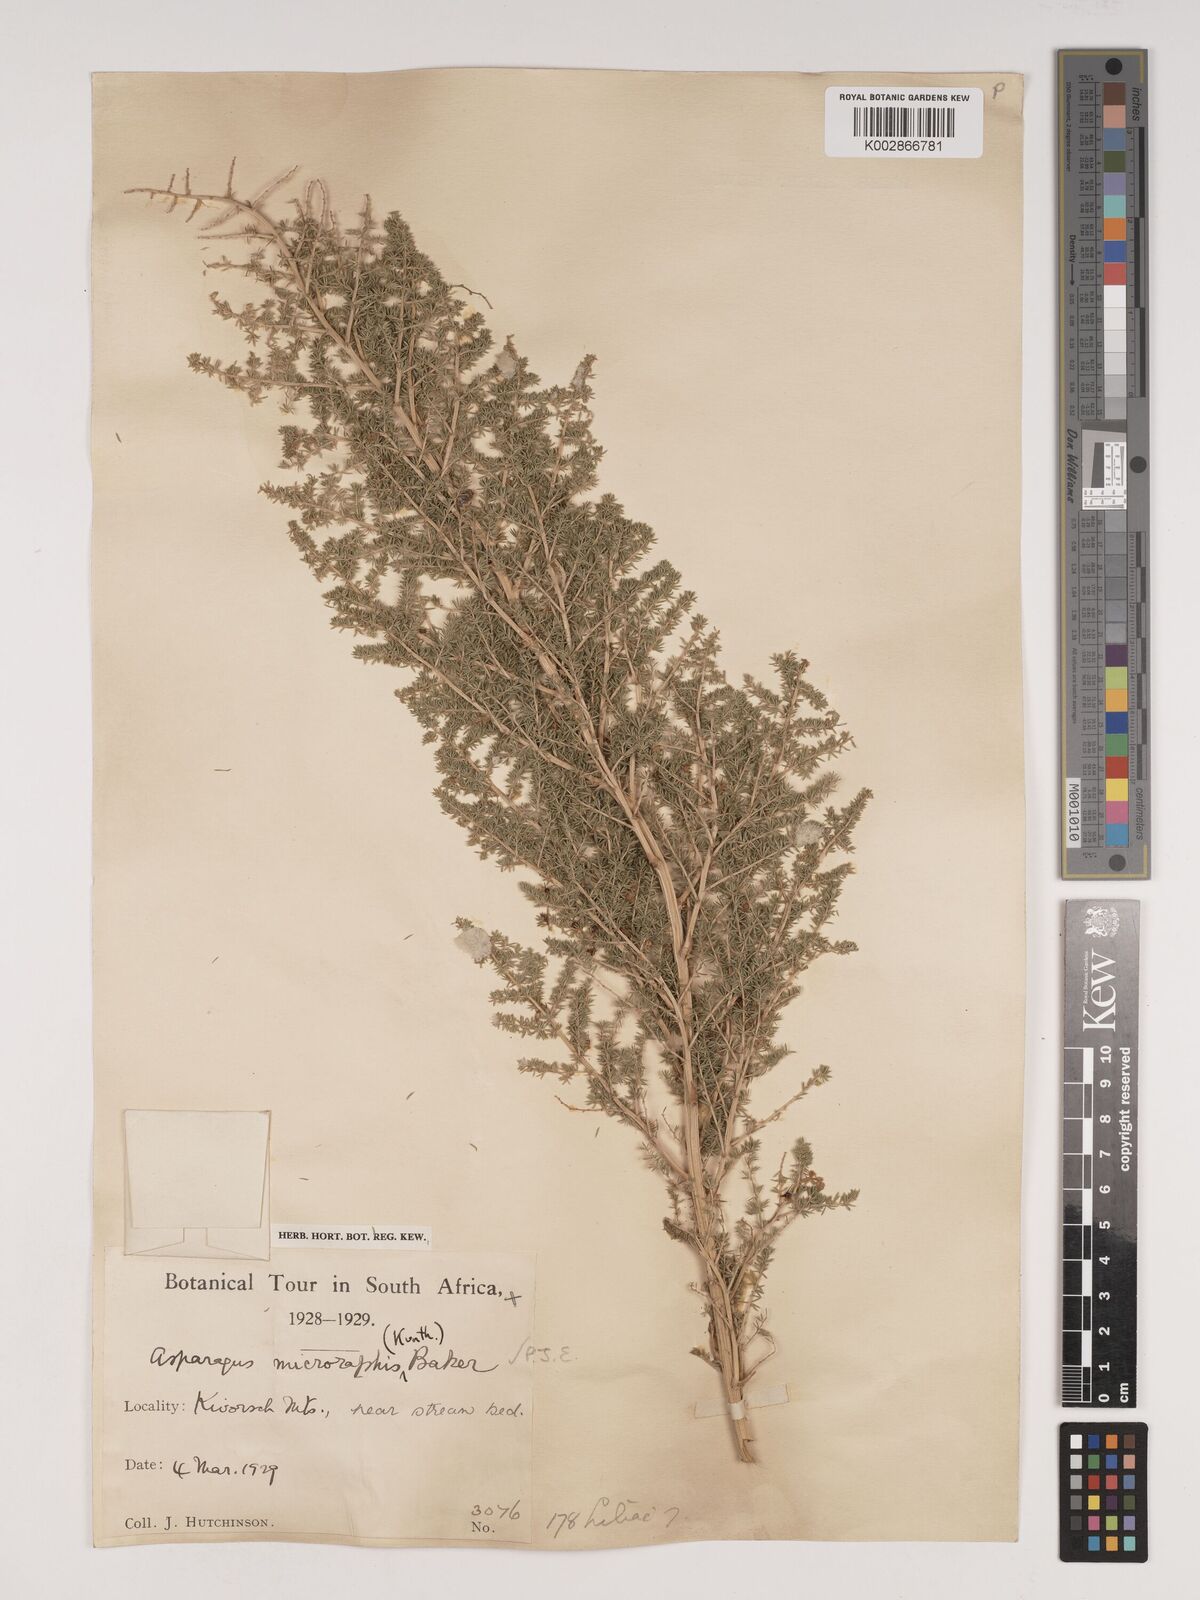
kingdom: Plantae
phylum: Tracheophyta
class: Liliopsida
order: Asparagales
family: Asparagaceae
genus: Asparagus
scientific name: Asparagus microraphis
